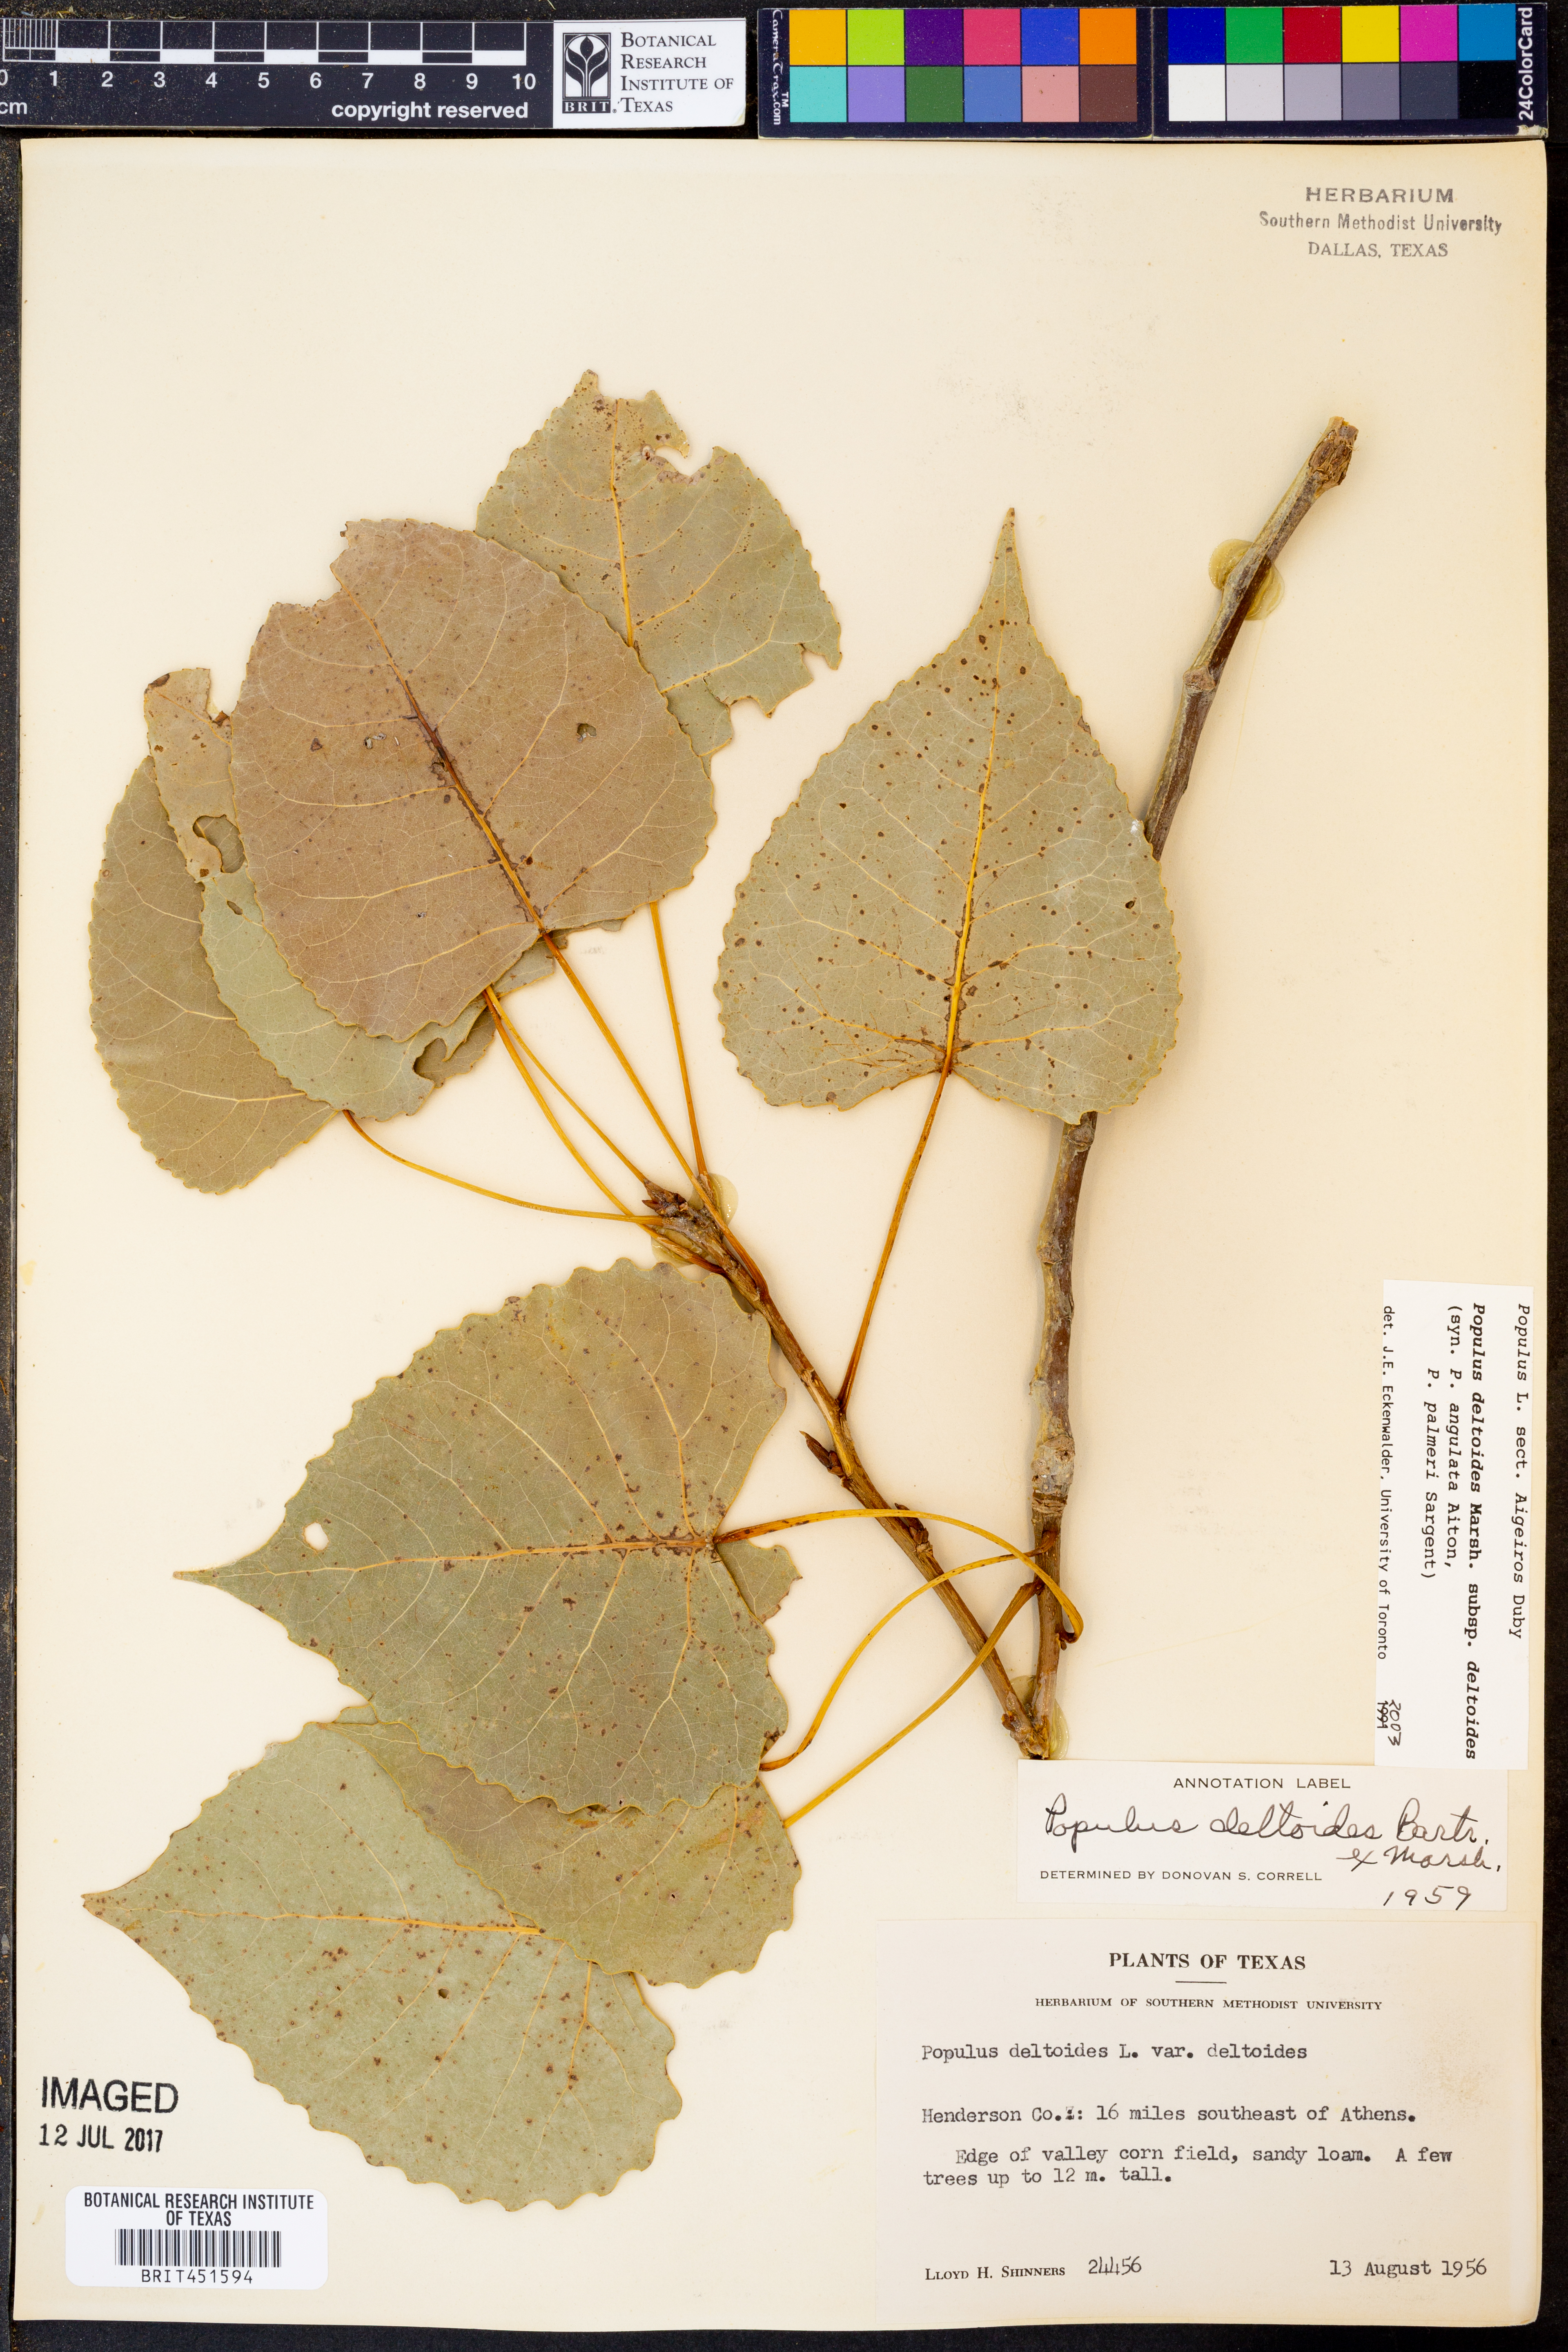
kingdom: Plantae
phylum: Tracheophyta
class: Magnoliopsida
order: Malpighiales
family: Salicaceae
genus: Populus
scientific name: Populus deltoides
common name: Eastern cottonwood
